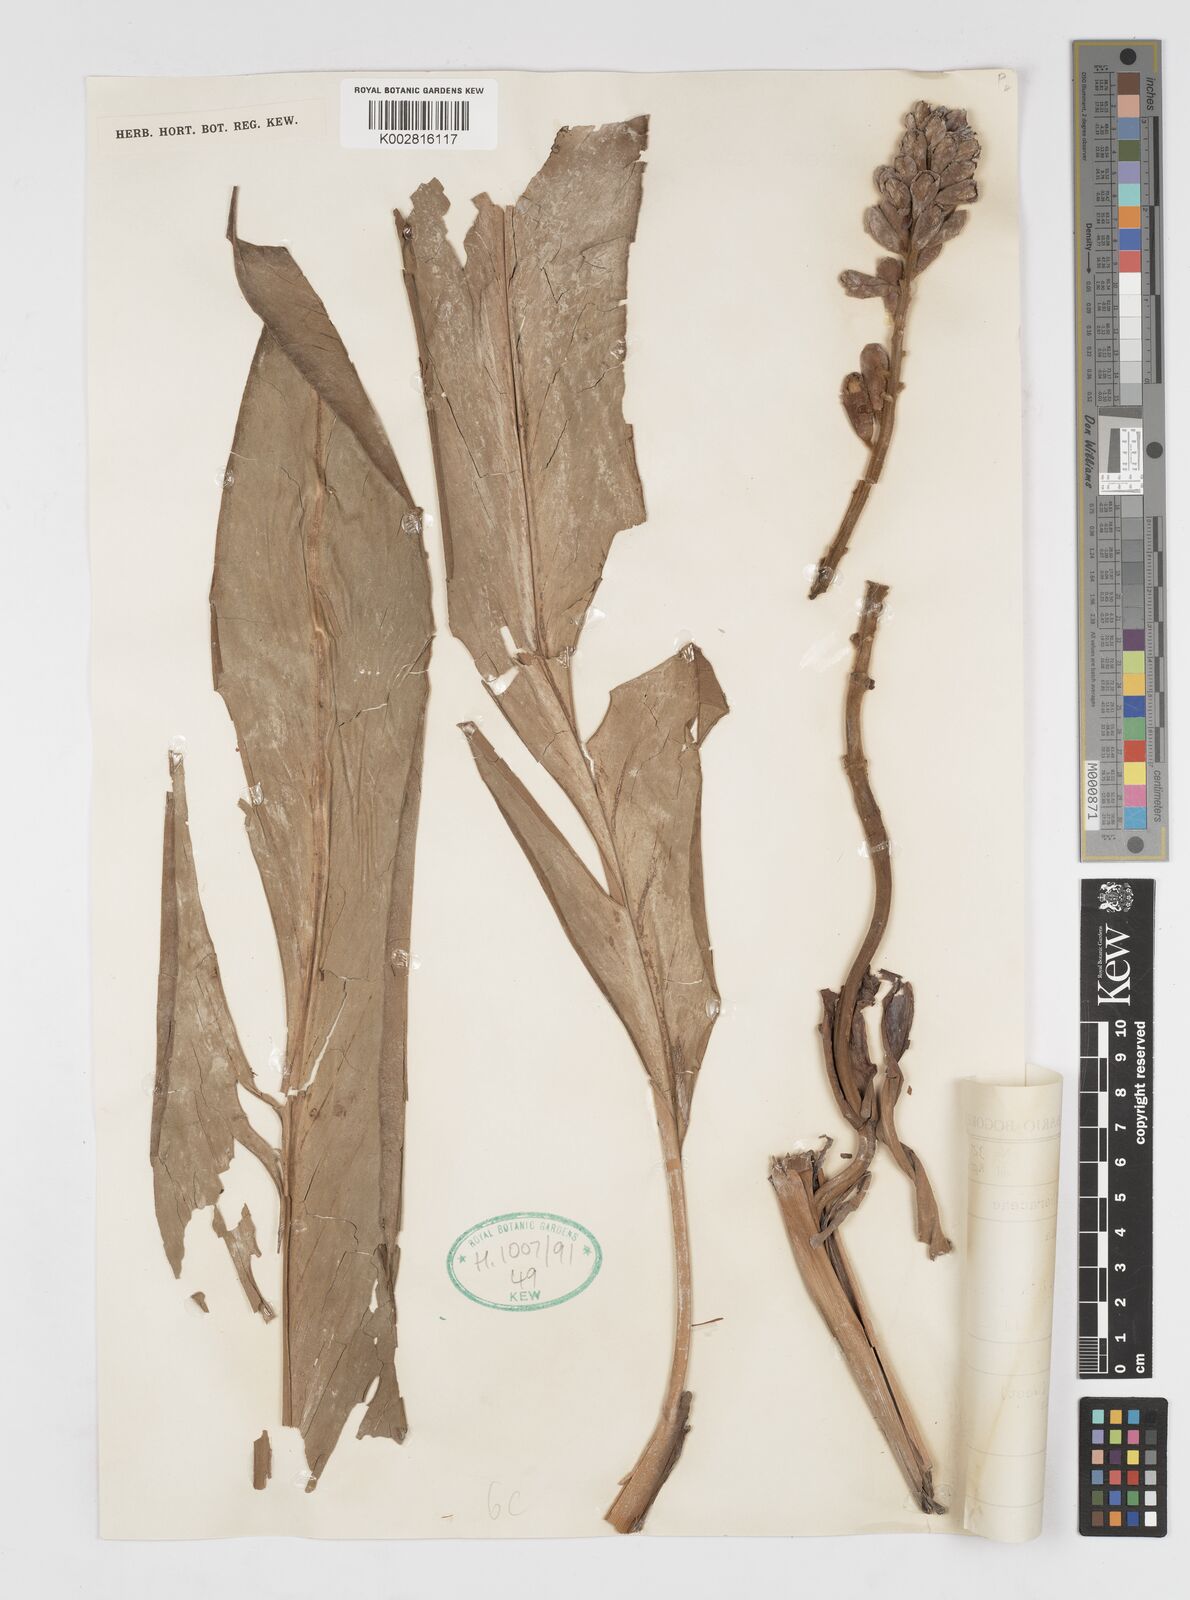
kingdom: Plantae
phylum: Tracheophyta
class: Liliopsida
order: Zingiberales
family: Zingiberaceae
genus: Alpinia
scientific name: Alpinia
